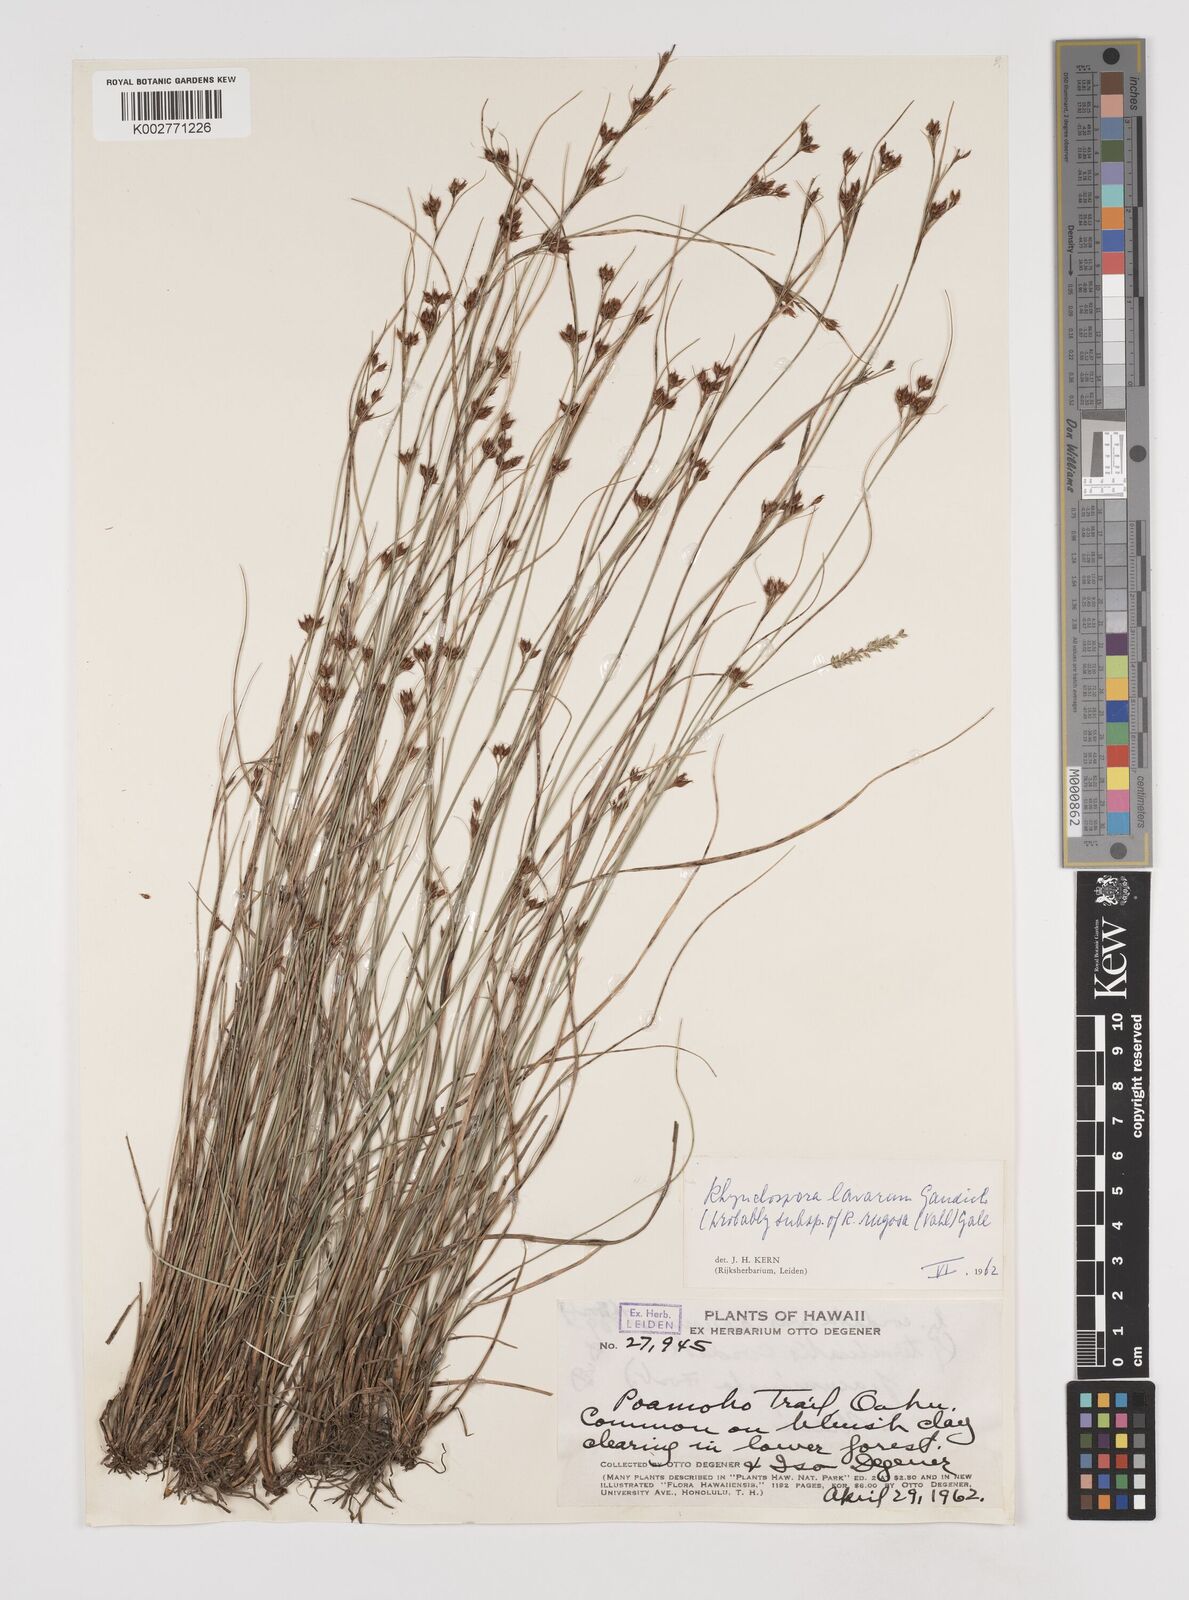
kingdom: Plantae
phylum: Tracheophyta
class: Liliopsida
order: Poales
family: Cyperaceae
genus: Rhynchospora
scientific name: Rhynchospora rugosa
